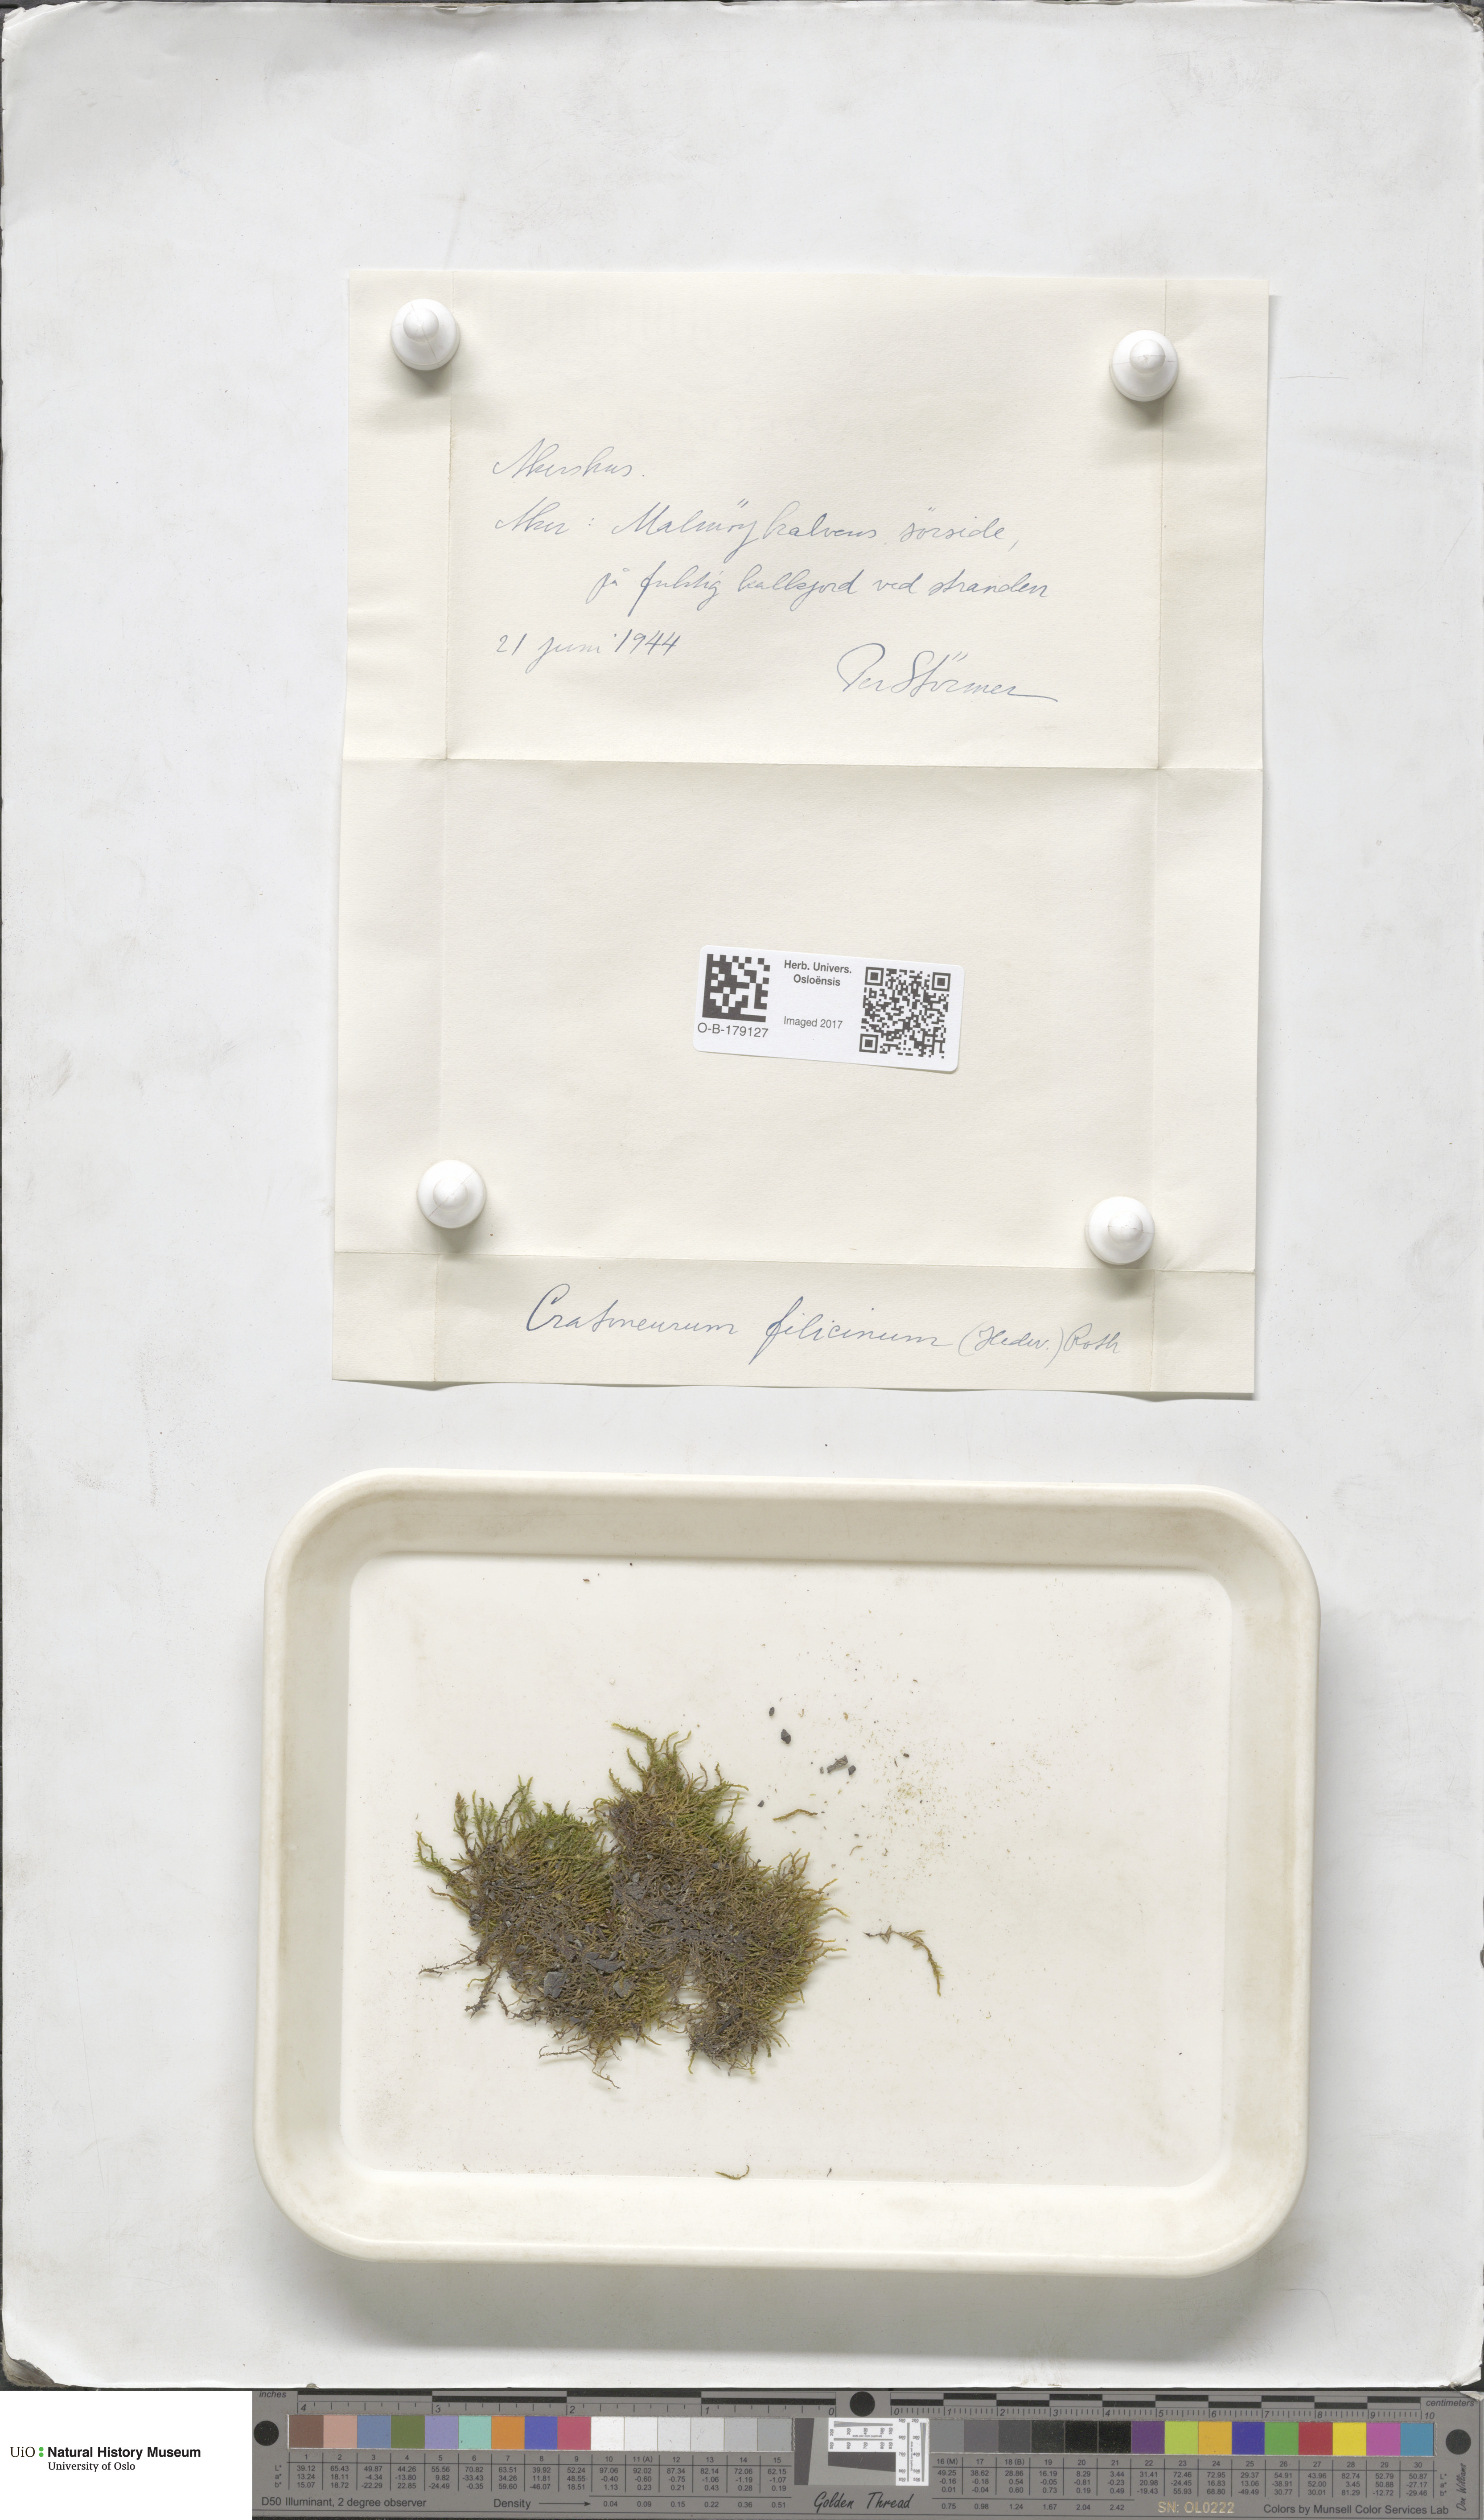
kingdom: Plantae
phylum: Bryophyta
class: Bryopsida
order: Hypnales
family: Amblystegiaceae
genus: Cratoneuron
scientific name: Cratoneuron filicinum
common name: Fern-leaved hook moss
